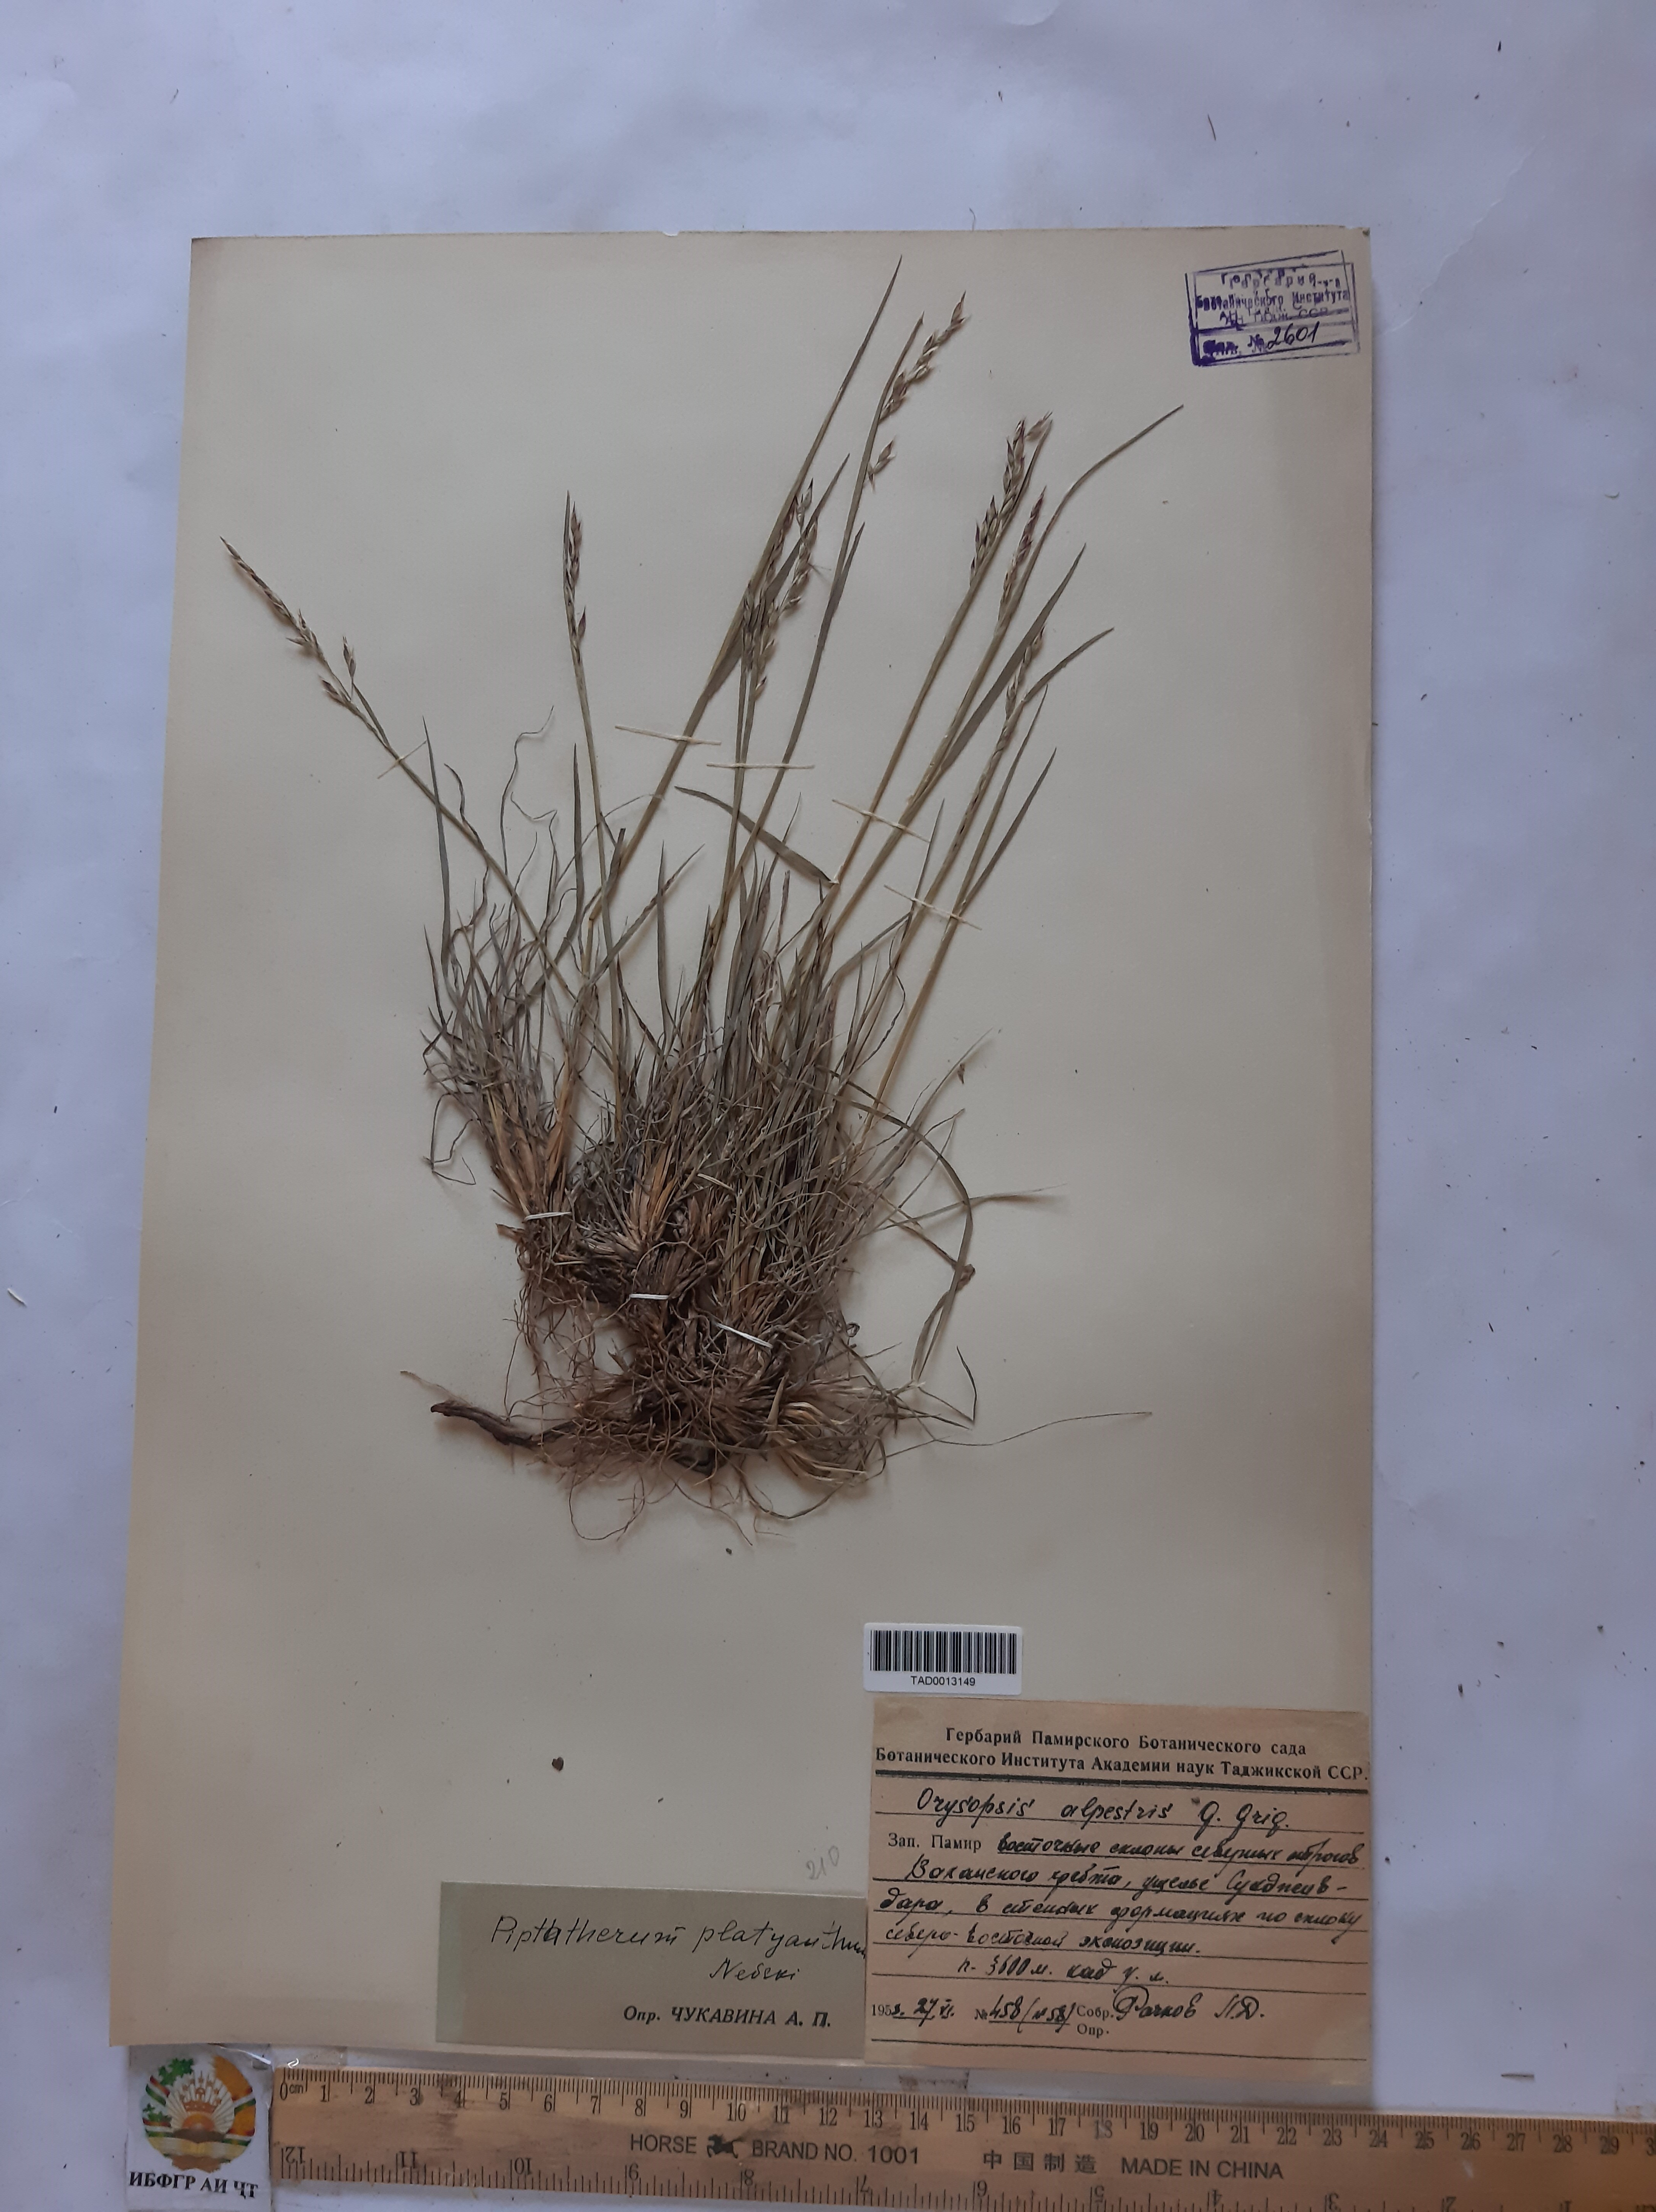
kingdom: Plantae
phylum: Tracheophyta
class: Liliopsida
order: Poales
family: Poaceae
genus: Piptatherum
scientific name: Piptatherum alpestre
